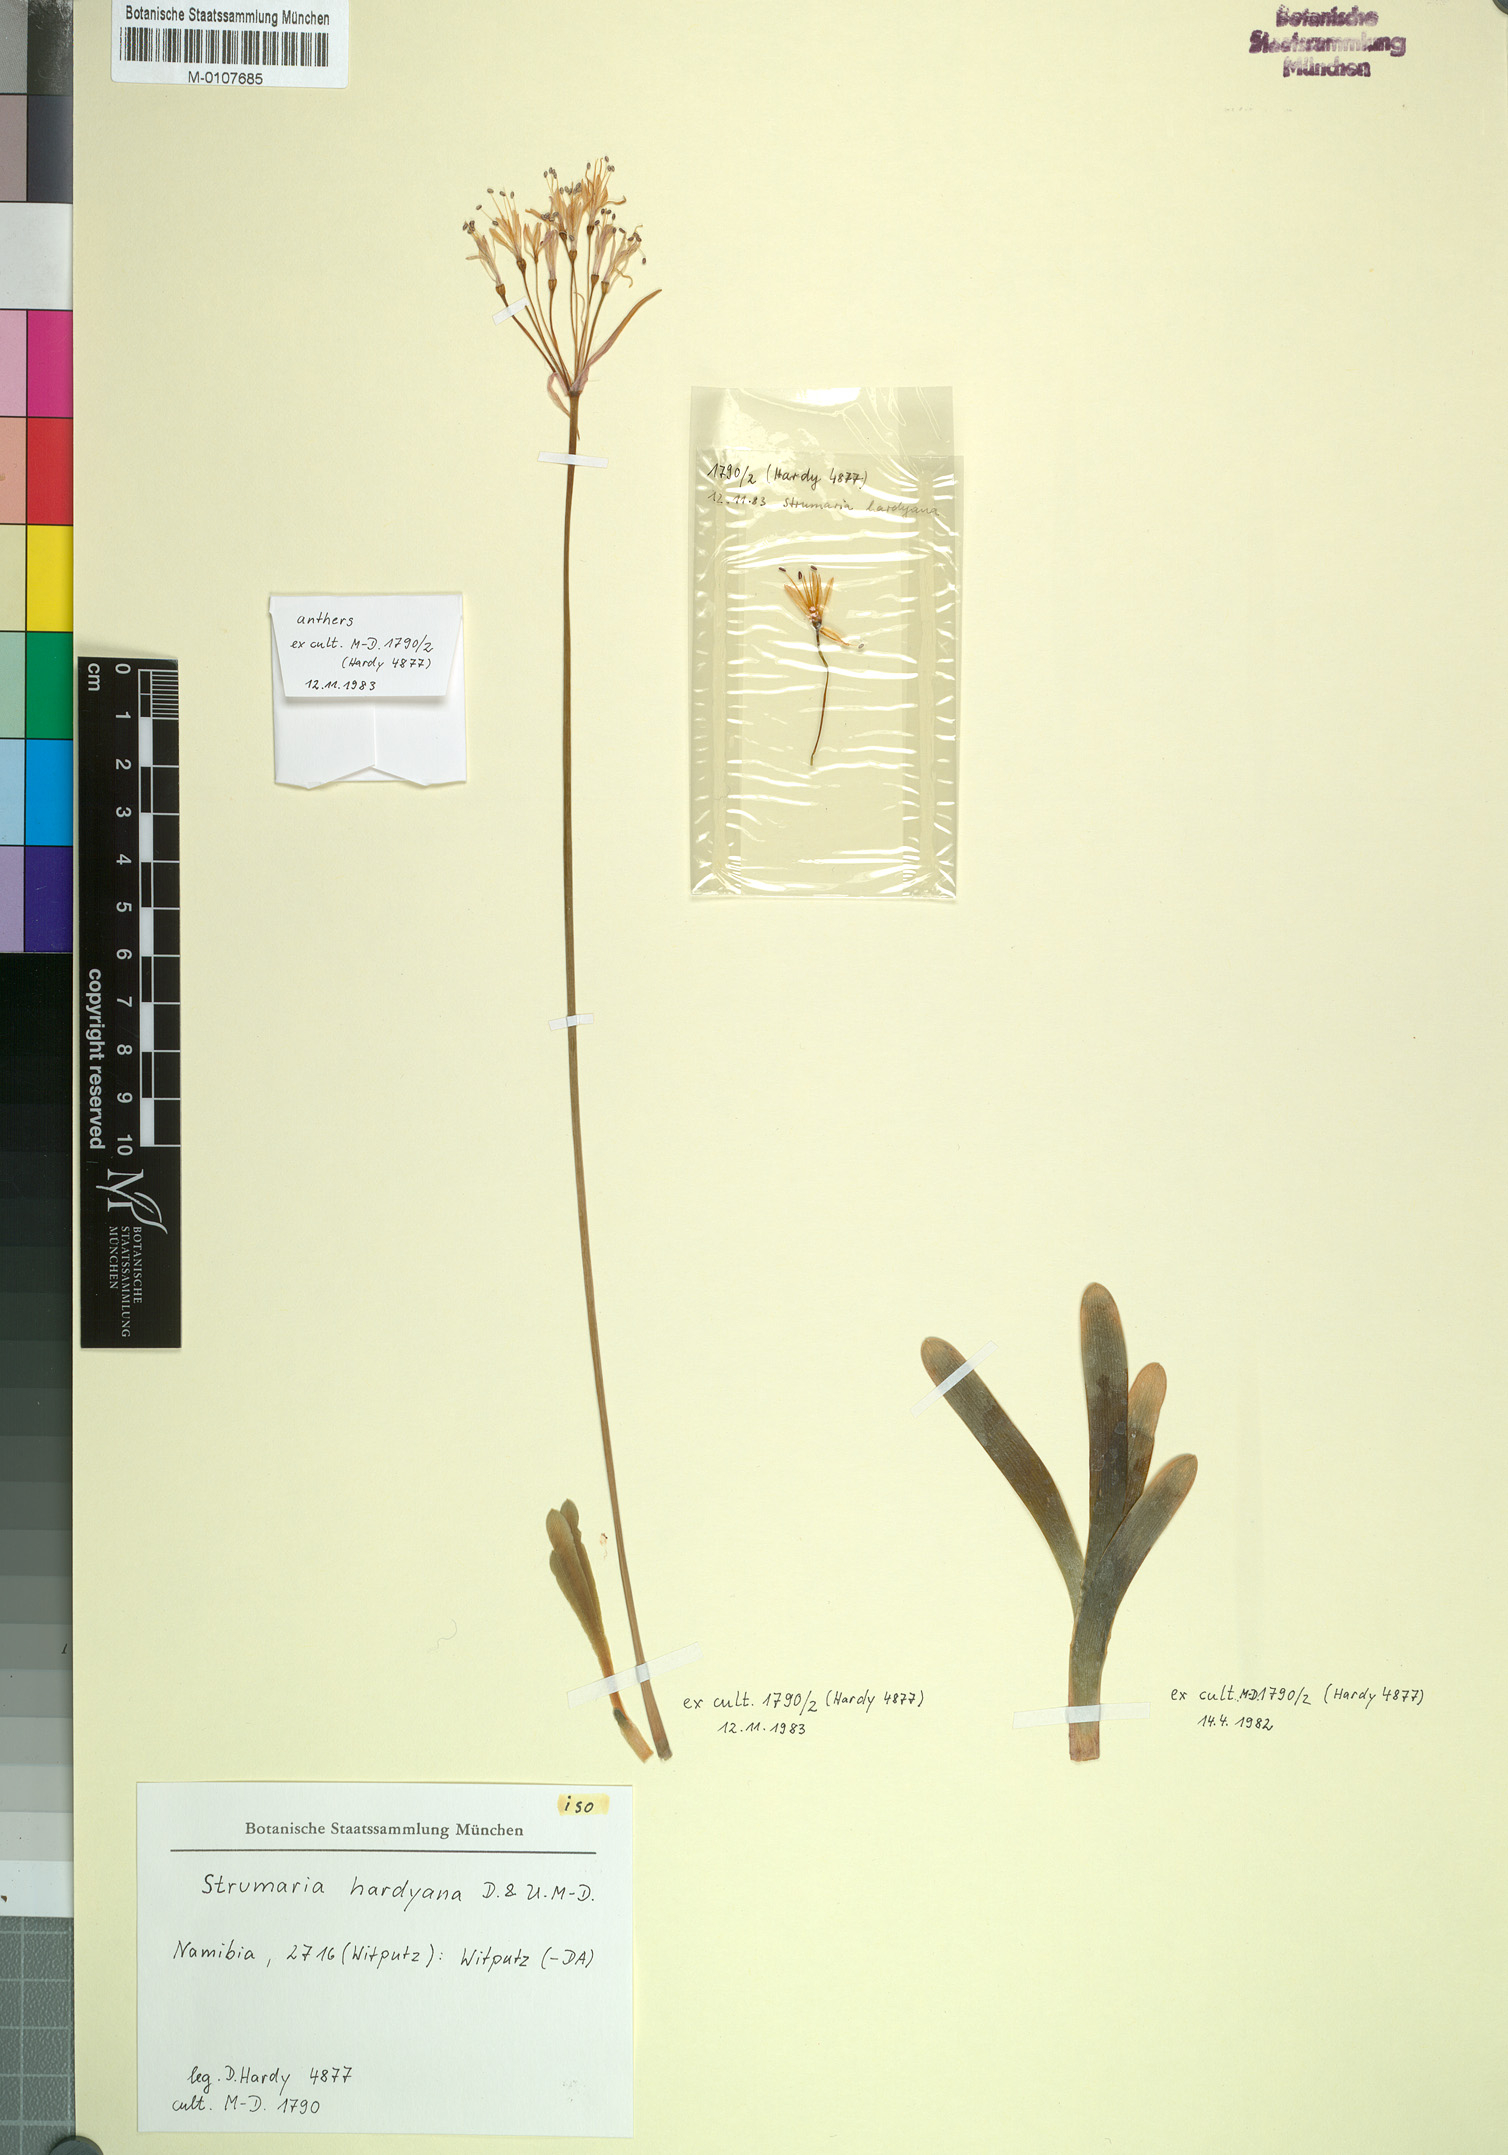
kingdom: Plantae
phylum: Tracheophyta
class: Liliopsida
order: Asparagales
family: Amaryllidaceae
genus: Strumaria
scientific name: Strumaria hardyana
